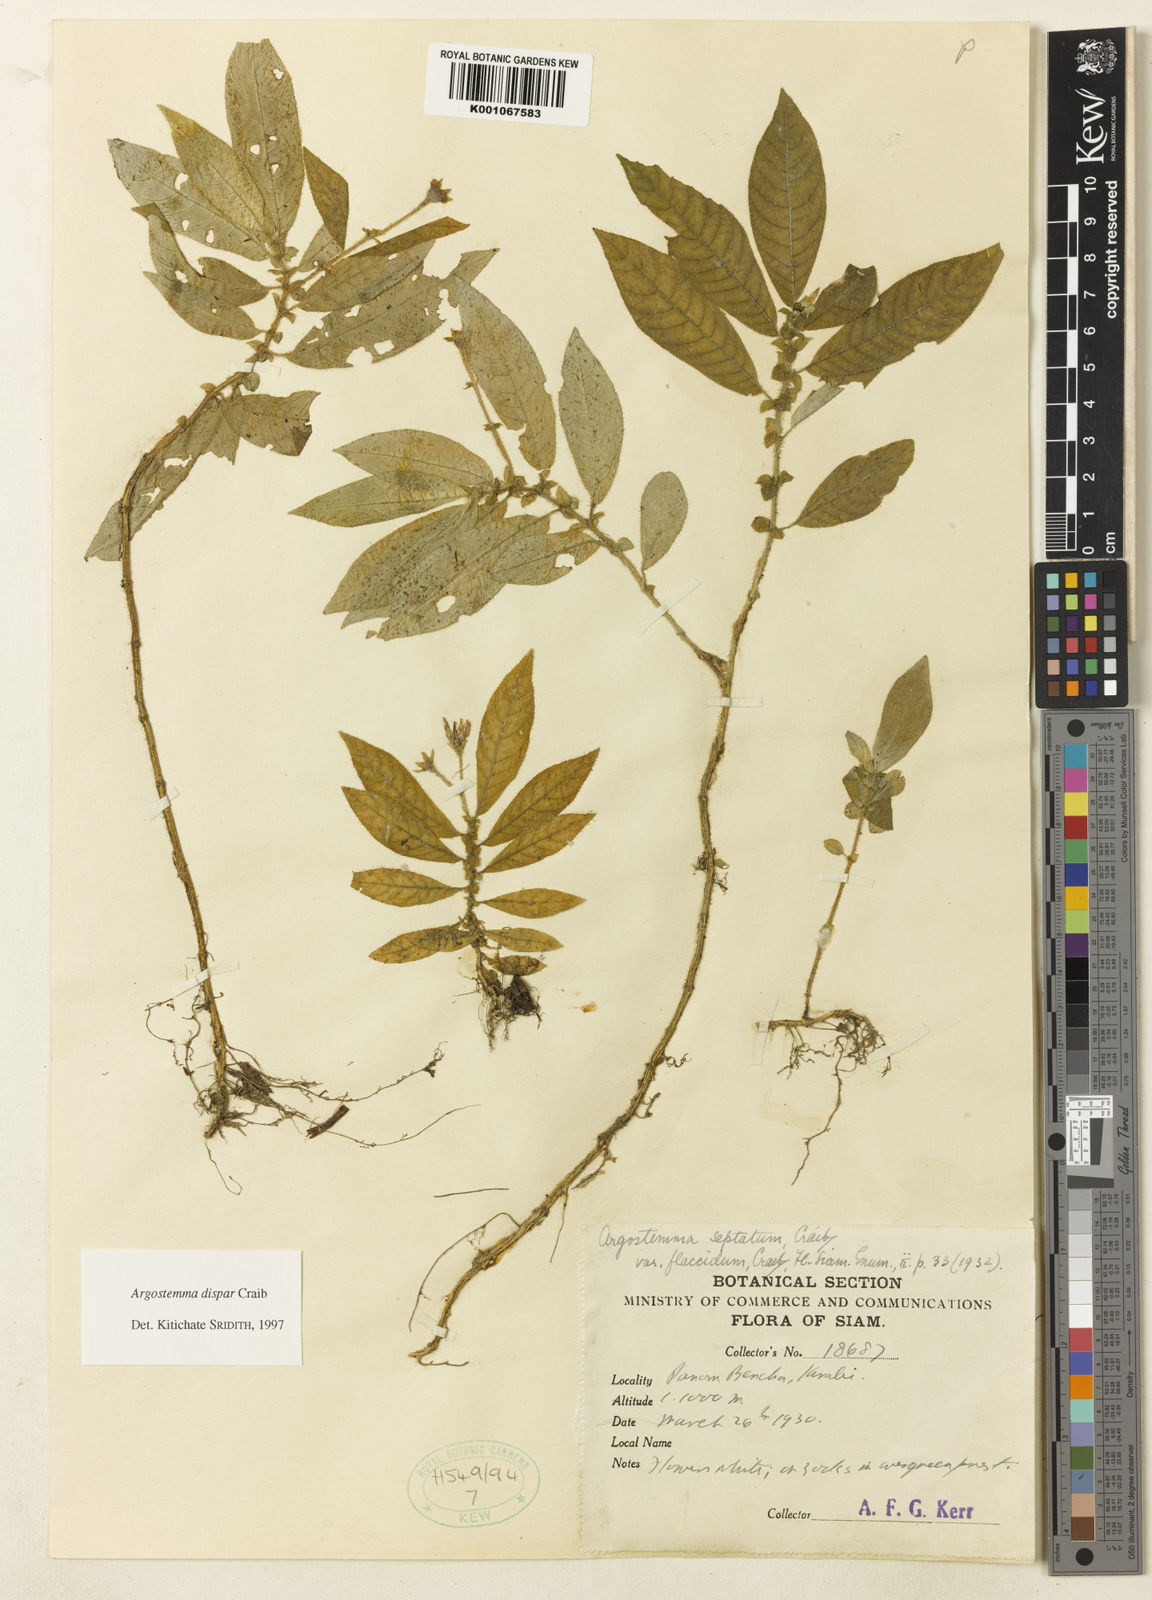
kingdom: Plantae
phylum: Tracheophyta
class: Magnoliopsida
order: Gentianales
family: Rubiaceae
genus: Argostemma
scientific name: Argostemma dispar
